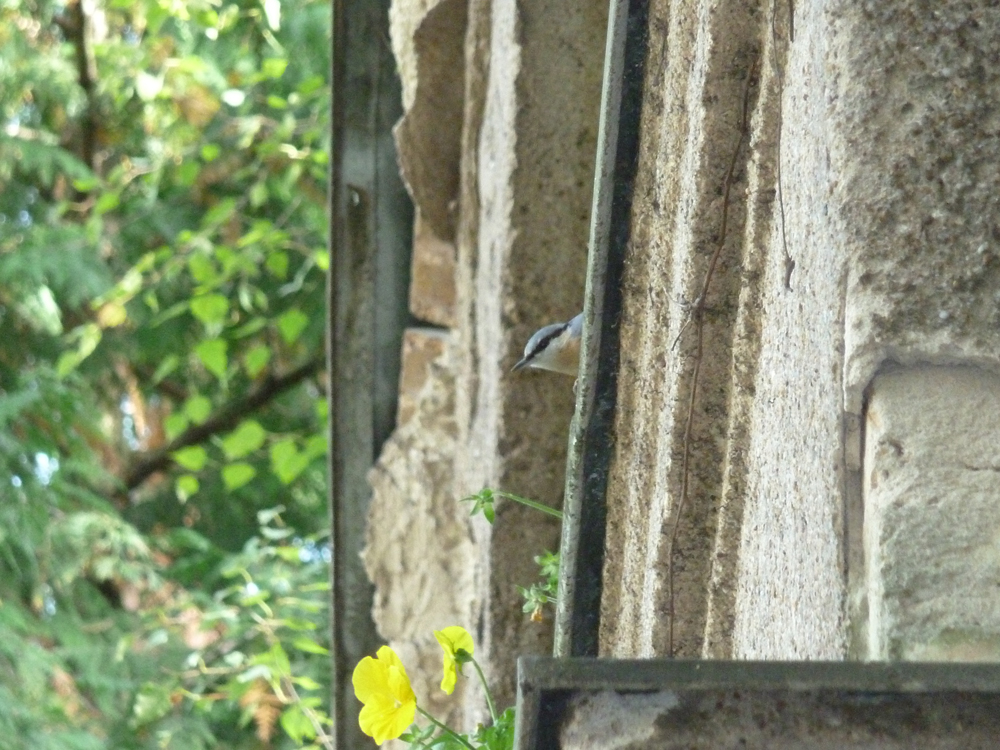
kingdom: Animalia
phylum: Chordata
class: Aves
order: Passeriformes
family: Sittidae
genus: Sitta
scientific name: Sitta europaea
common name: Eurasian nuthatch
